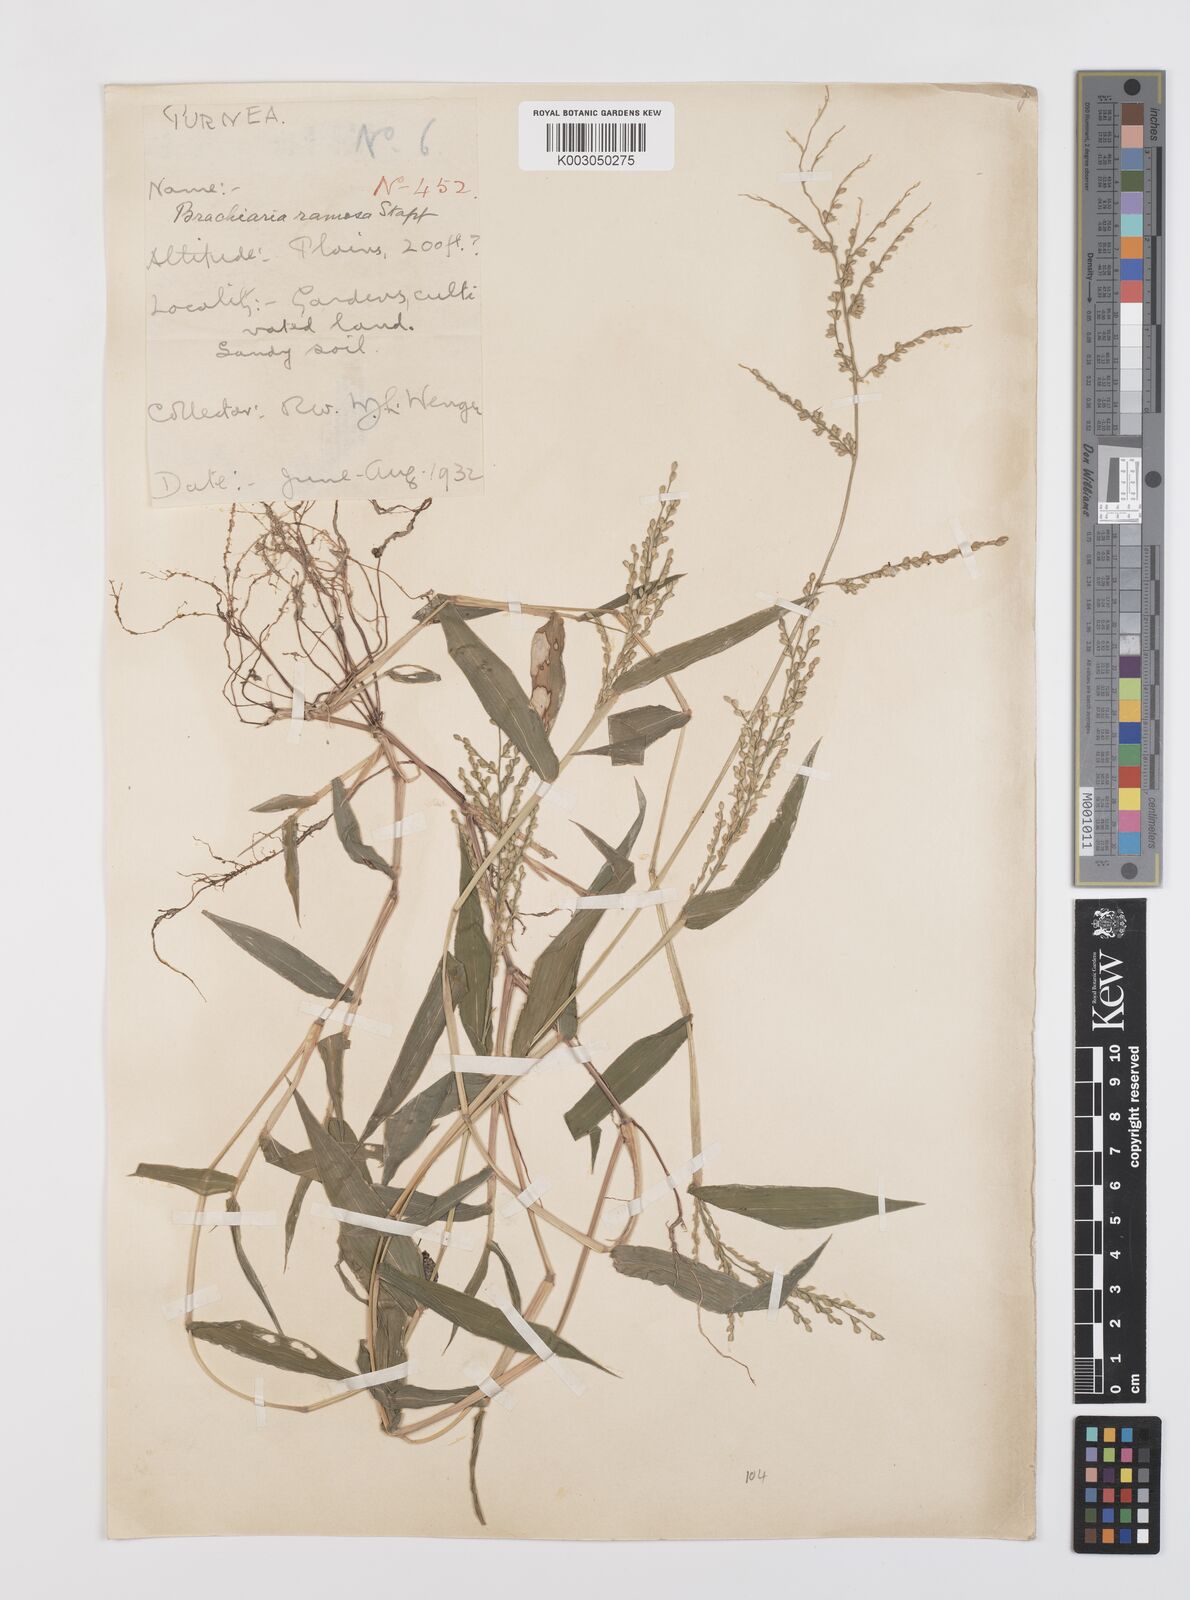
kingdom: Plantae
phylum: Tracheophyta
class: Liliopsida
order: Poales
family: Poaceae
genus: Urochloa
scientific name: Urochloa ramosa
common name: Browntop millet
